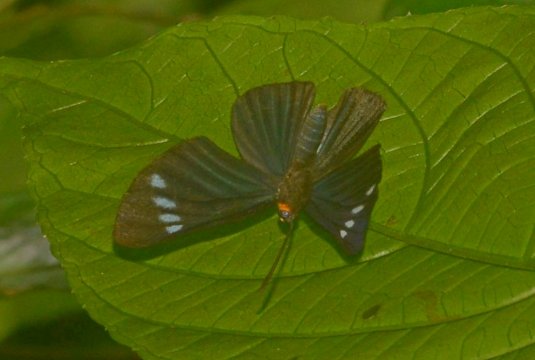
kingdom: Animalia
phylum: Arthropoda
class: Insecta
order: Lepidoptera
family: Riodinidae
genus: Pheles
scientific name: Pheles strigosa
